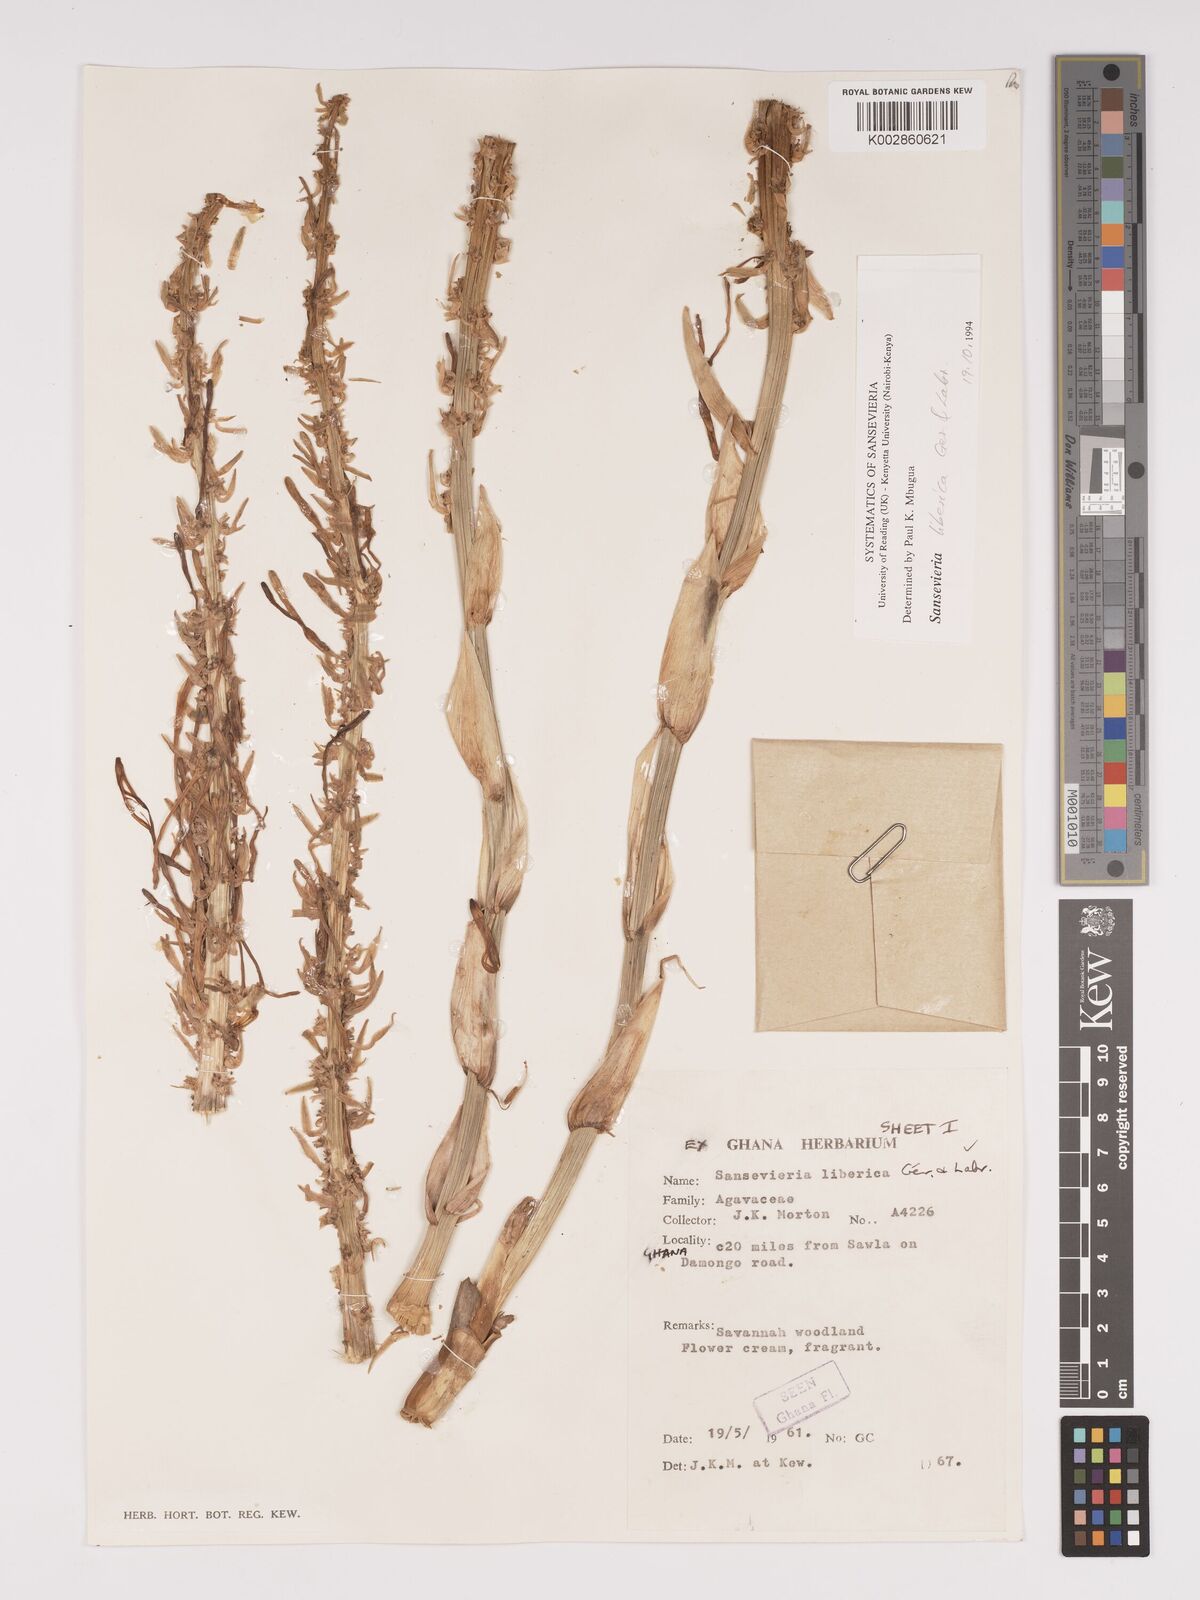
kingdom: Plantae
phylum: Tracheophyta
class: Liliopsida
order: Asparagales
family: Asparagaceae
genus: Dracaena
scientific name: Dracaena liberica
